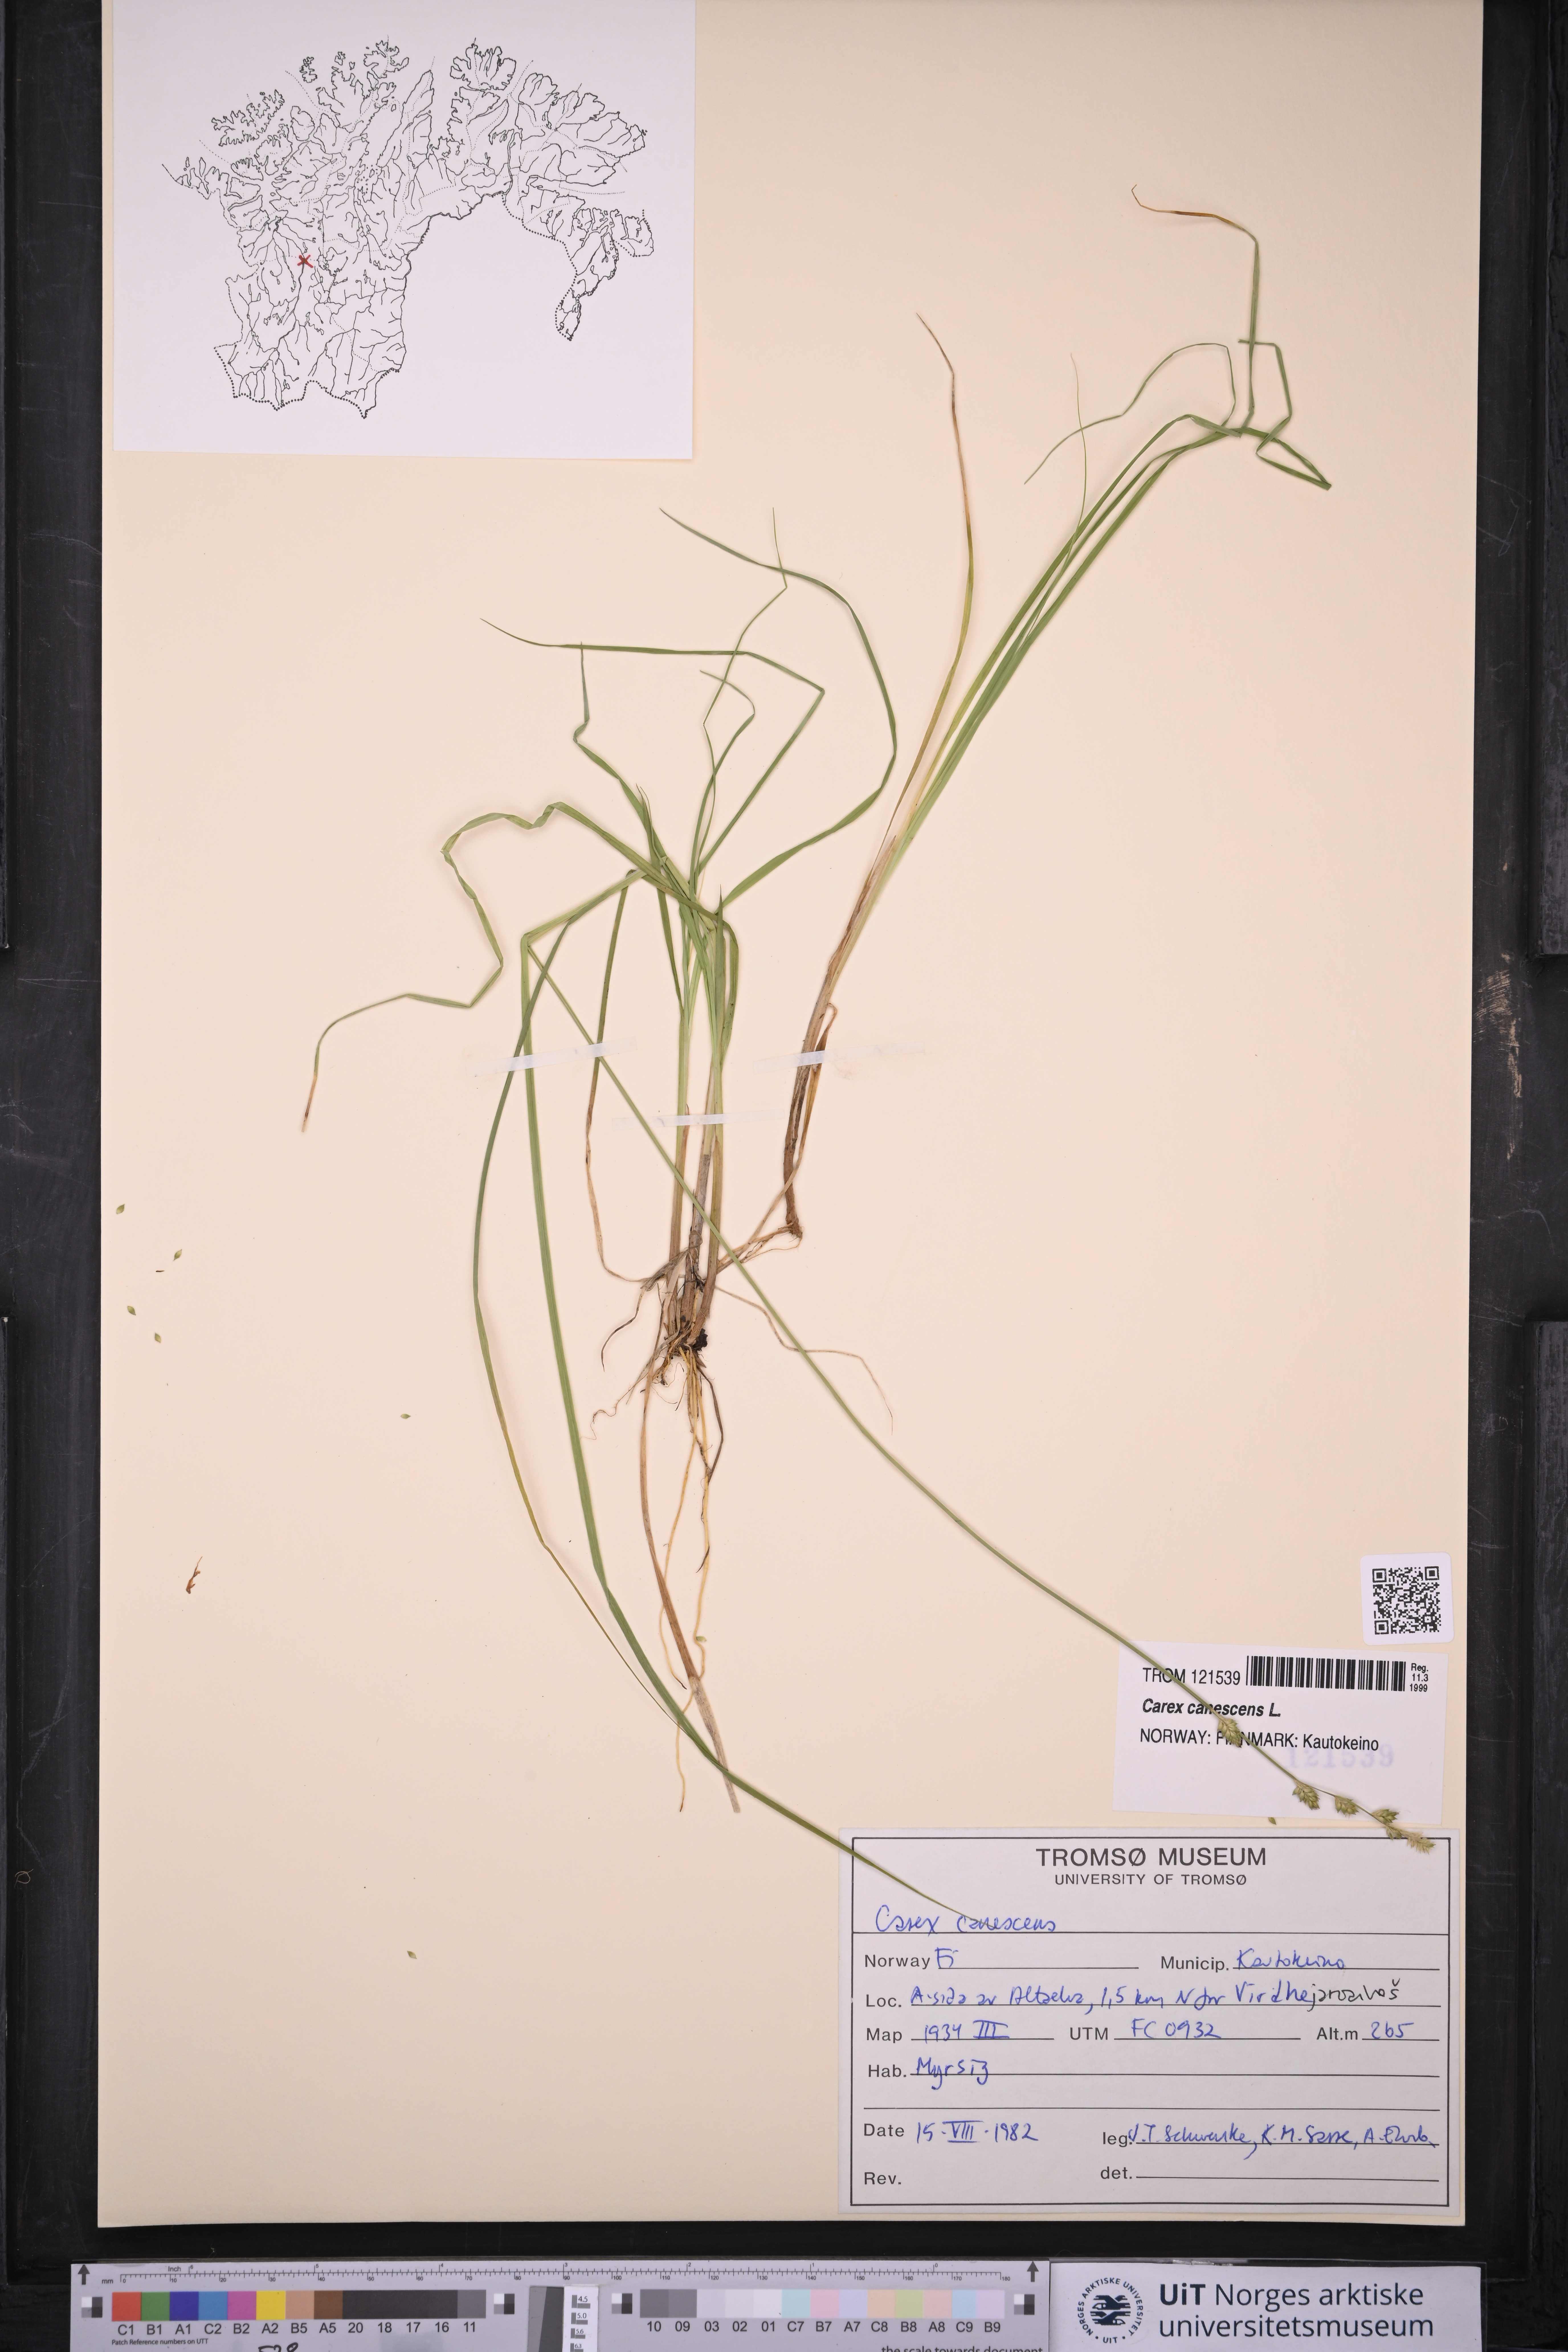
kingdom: Plantae
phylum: Tracheophyta
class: Liliopsida
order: Poales
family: Cyperaceae
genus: Carex
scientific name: Carex canescens
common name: White sedge
